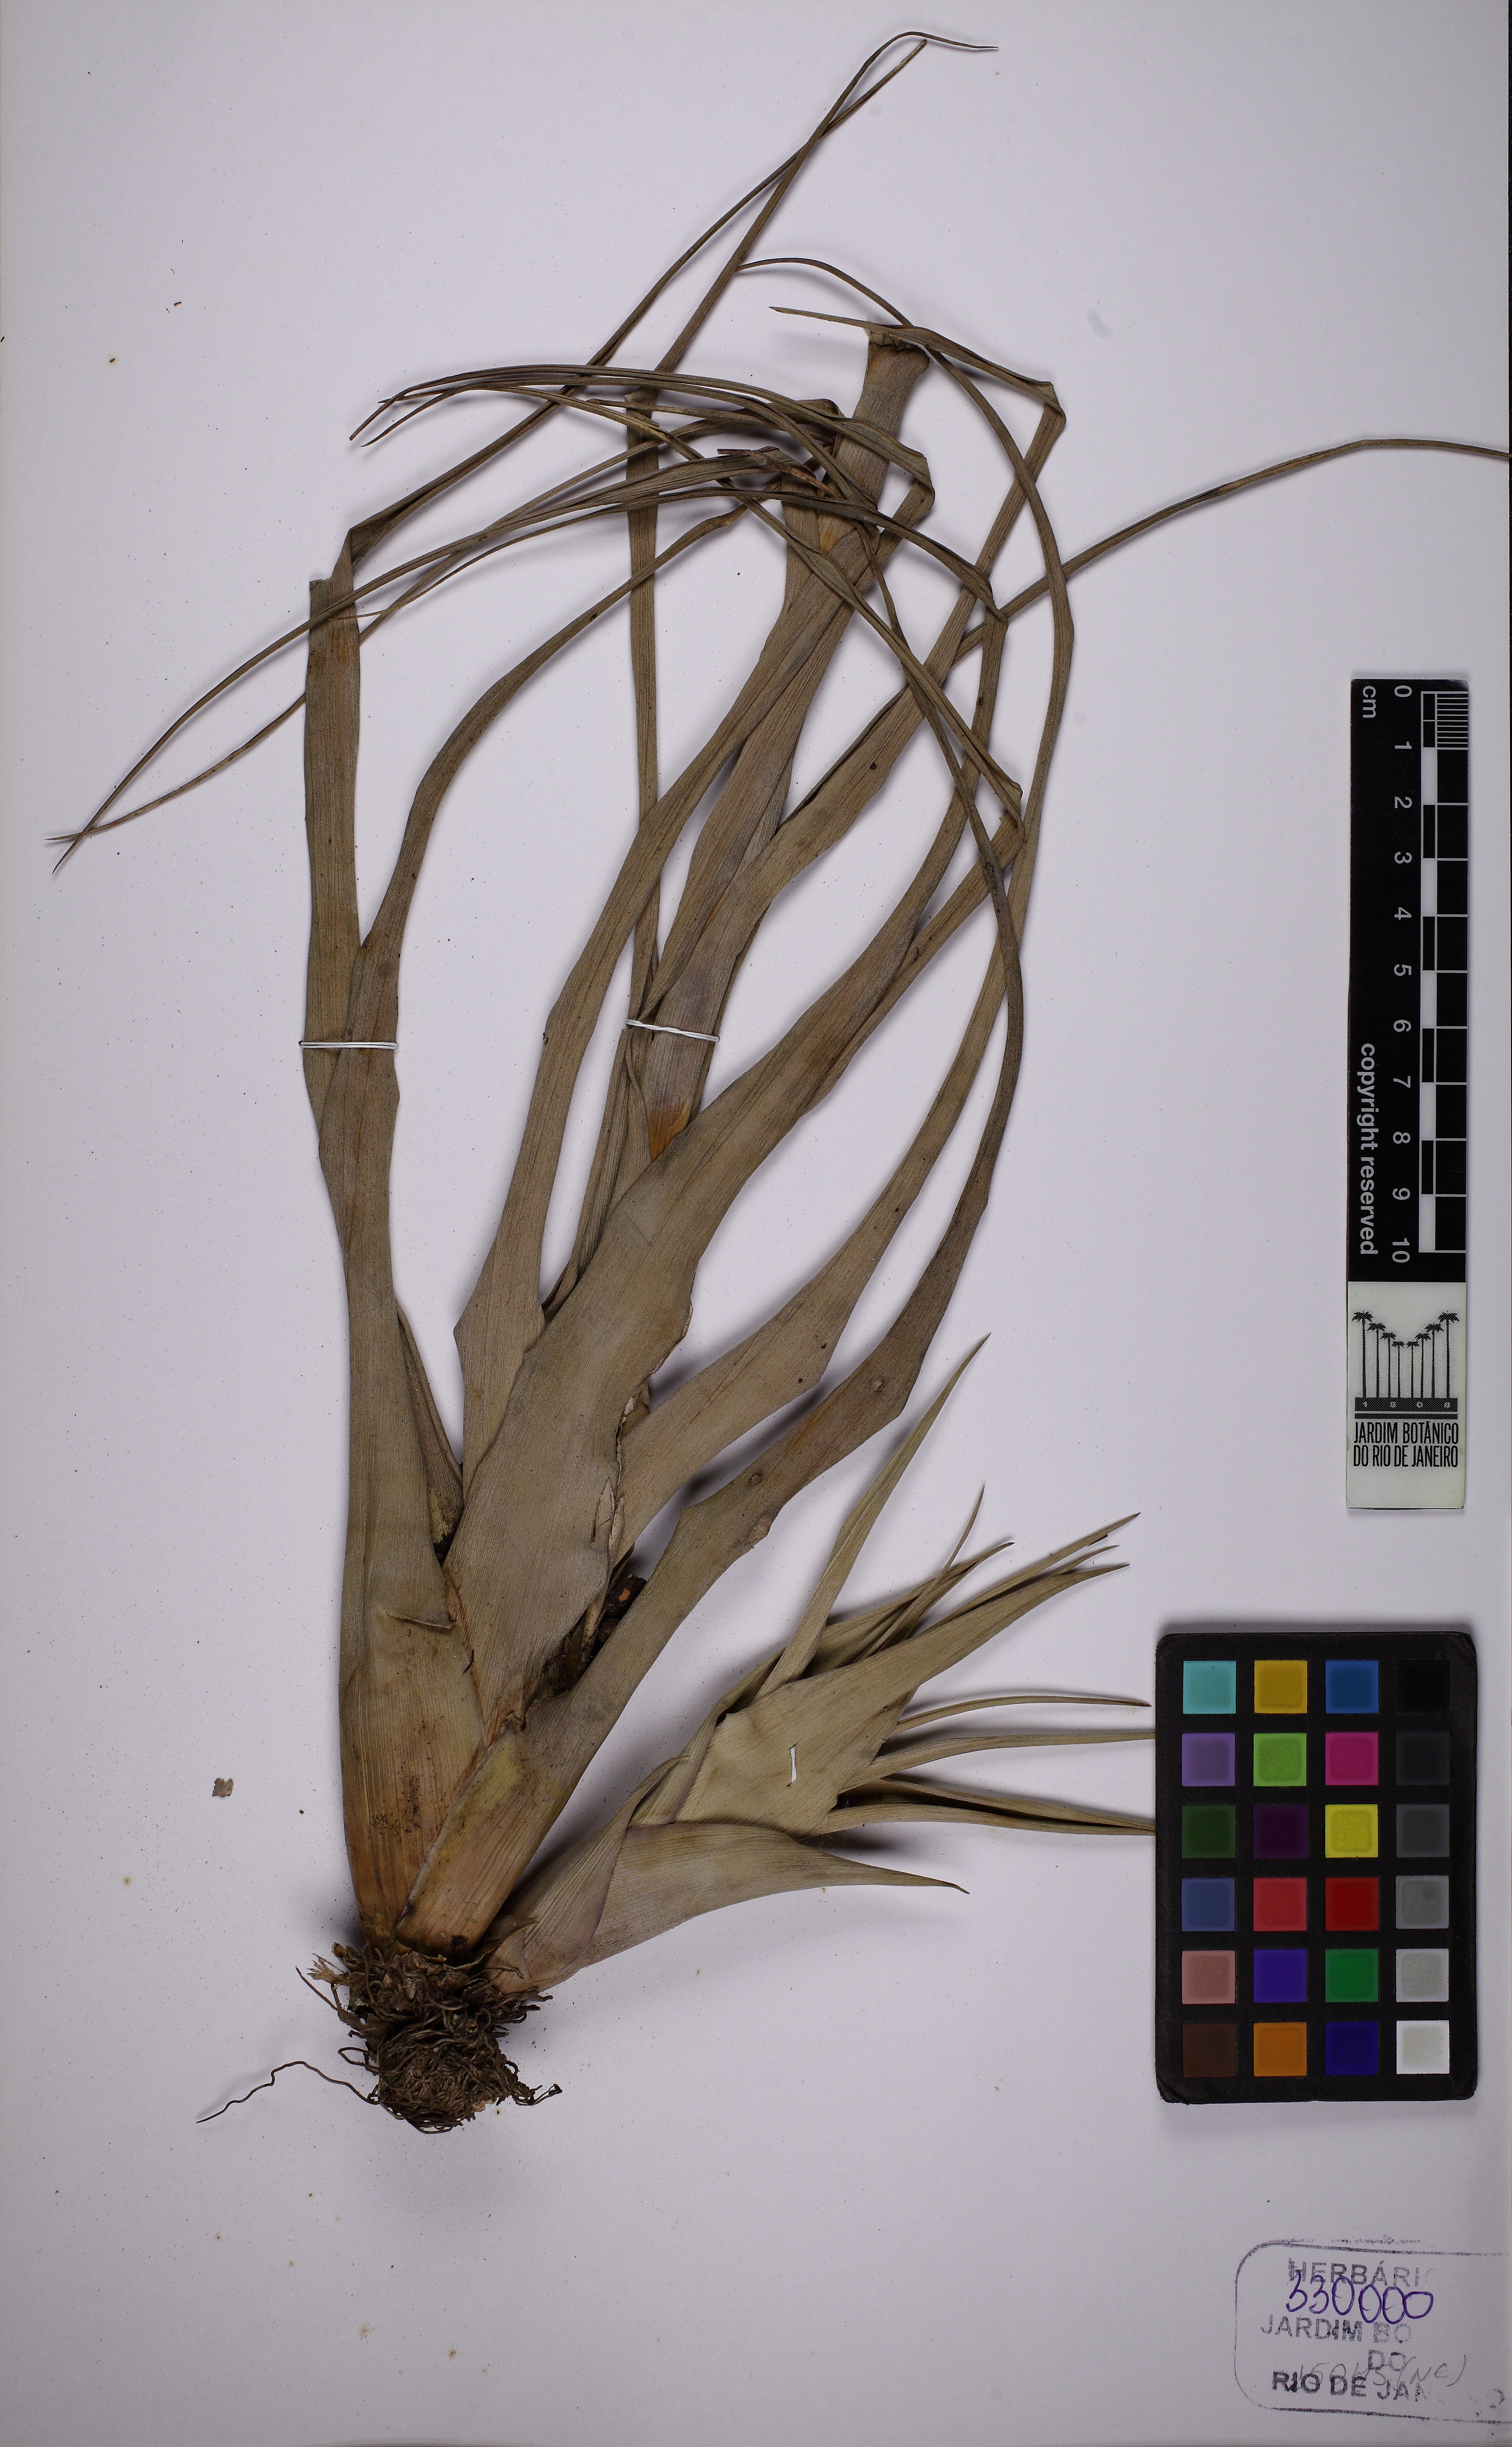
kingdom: Plantae
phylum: Tracheophyta
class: Liliopsida
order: Poales
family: Bromeliaceae
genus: Tillandsia
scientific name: Tillandsia polystachia
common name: Airplant
